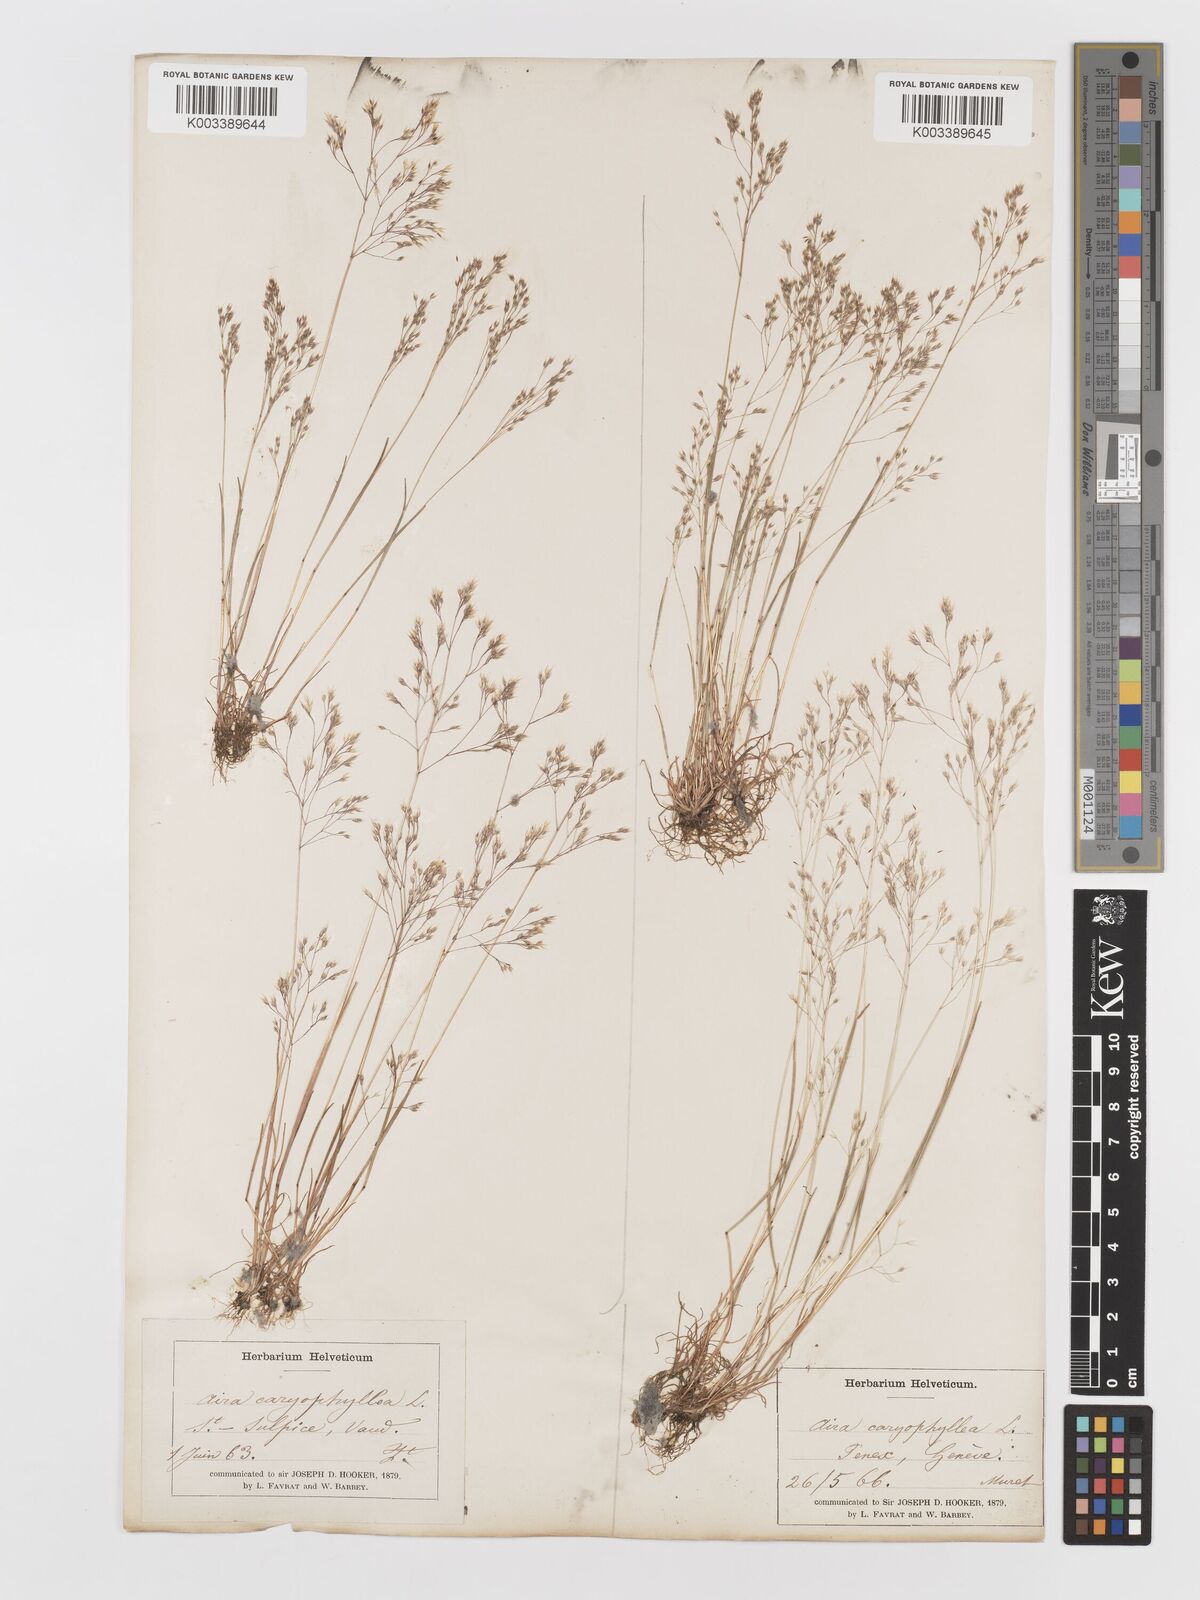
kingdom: Plantae
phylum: Tracheophyta
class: Liliopsida
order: Poales
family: Poaceae
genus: Aira
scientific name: Aira caryophyllea
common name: Silver hairgrass
